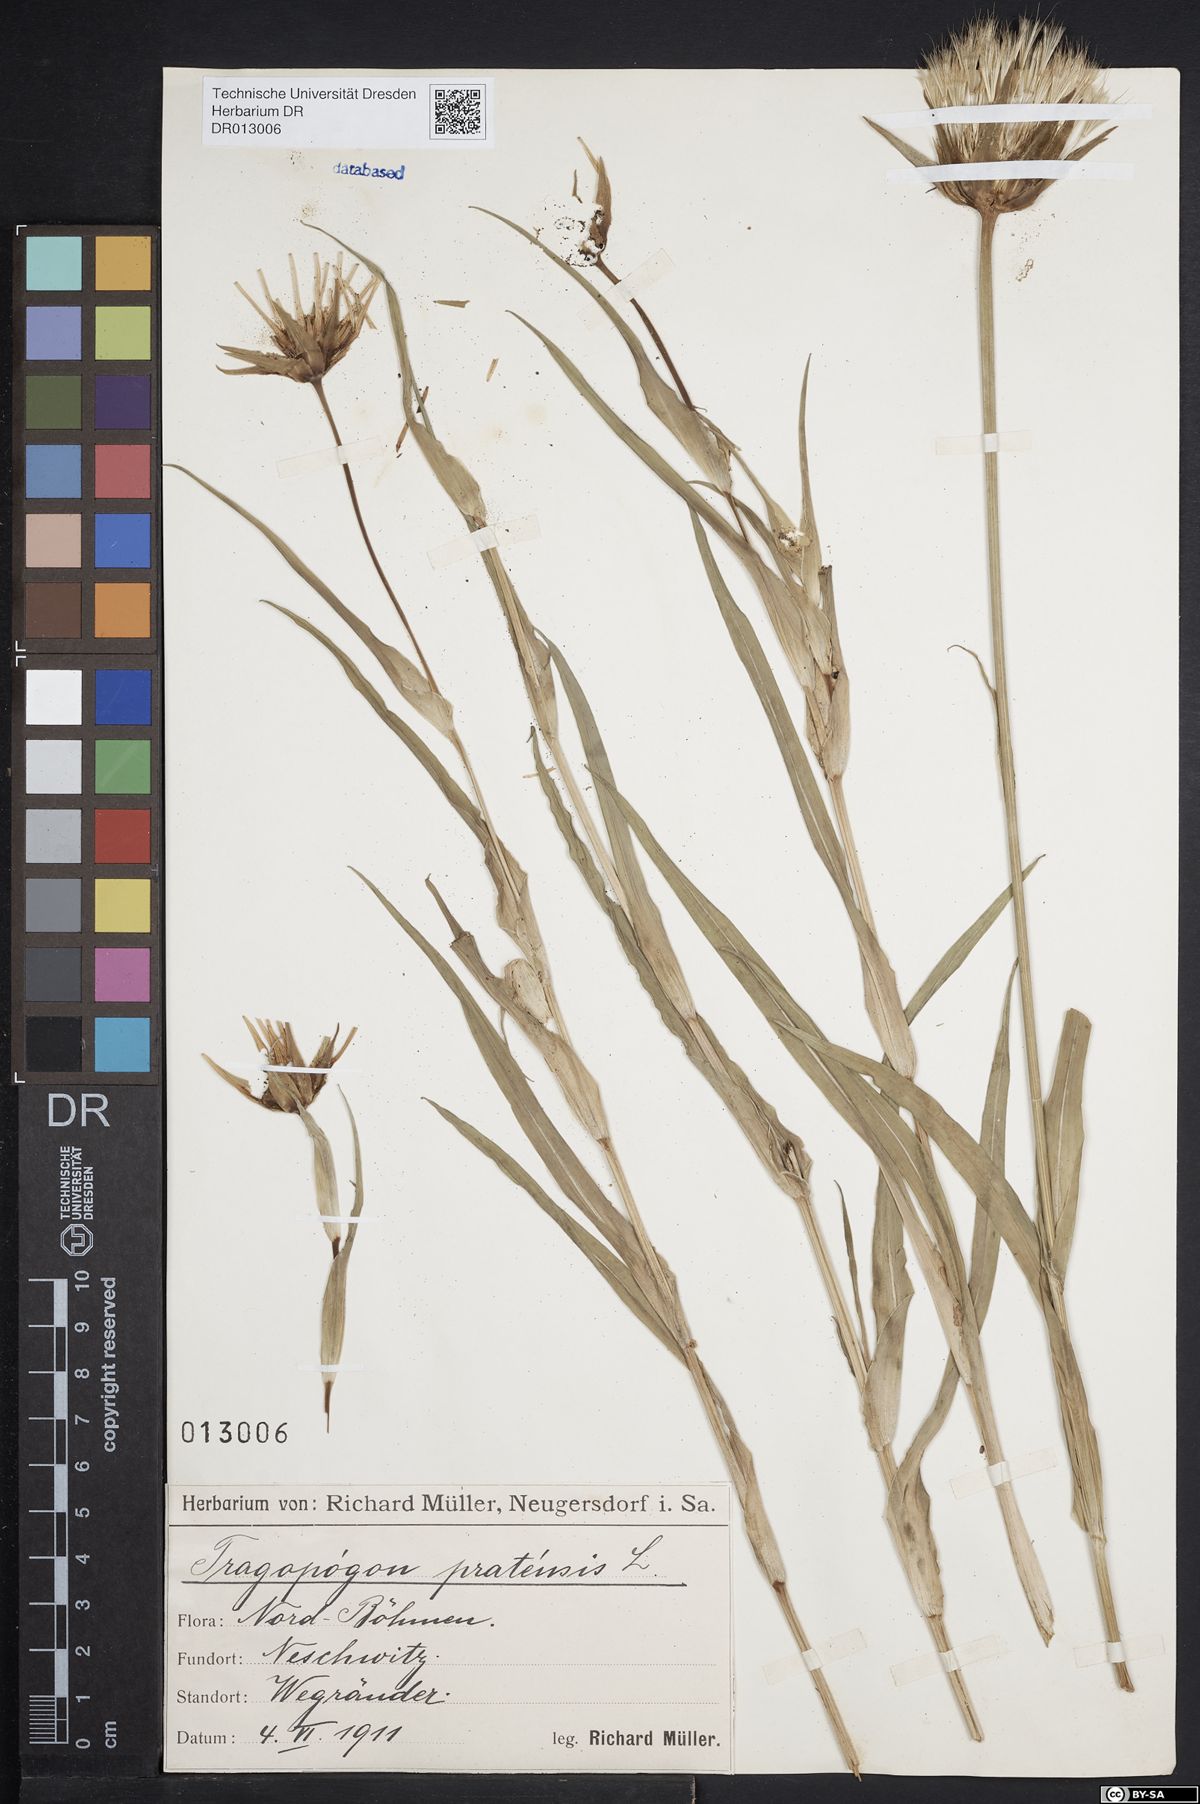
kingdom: Plantae
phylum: Tracheophyta
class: Magnoliopsida
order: Asterales
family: Asteraceae
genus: Tragopogon
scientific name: Tragopogon pratensis
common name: Goat's-beard
